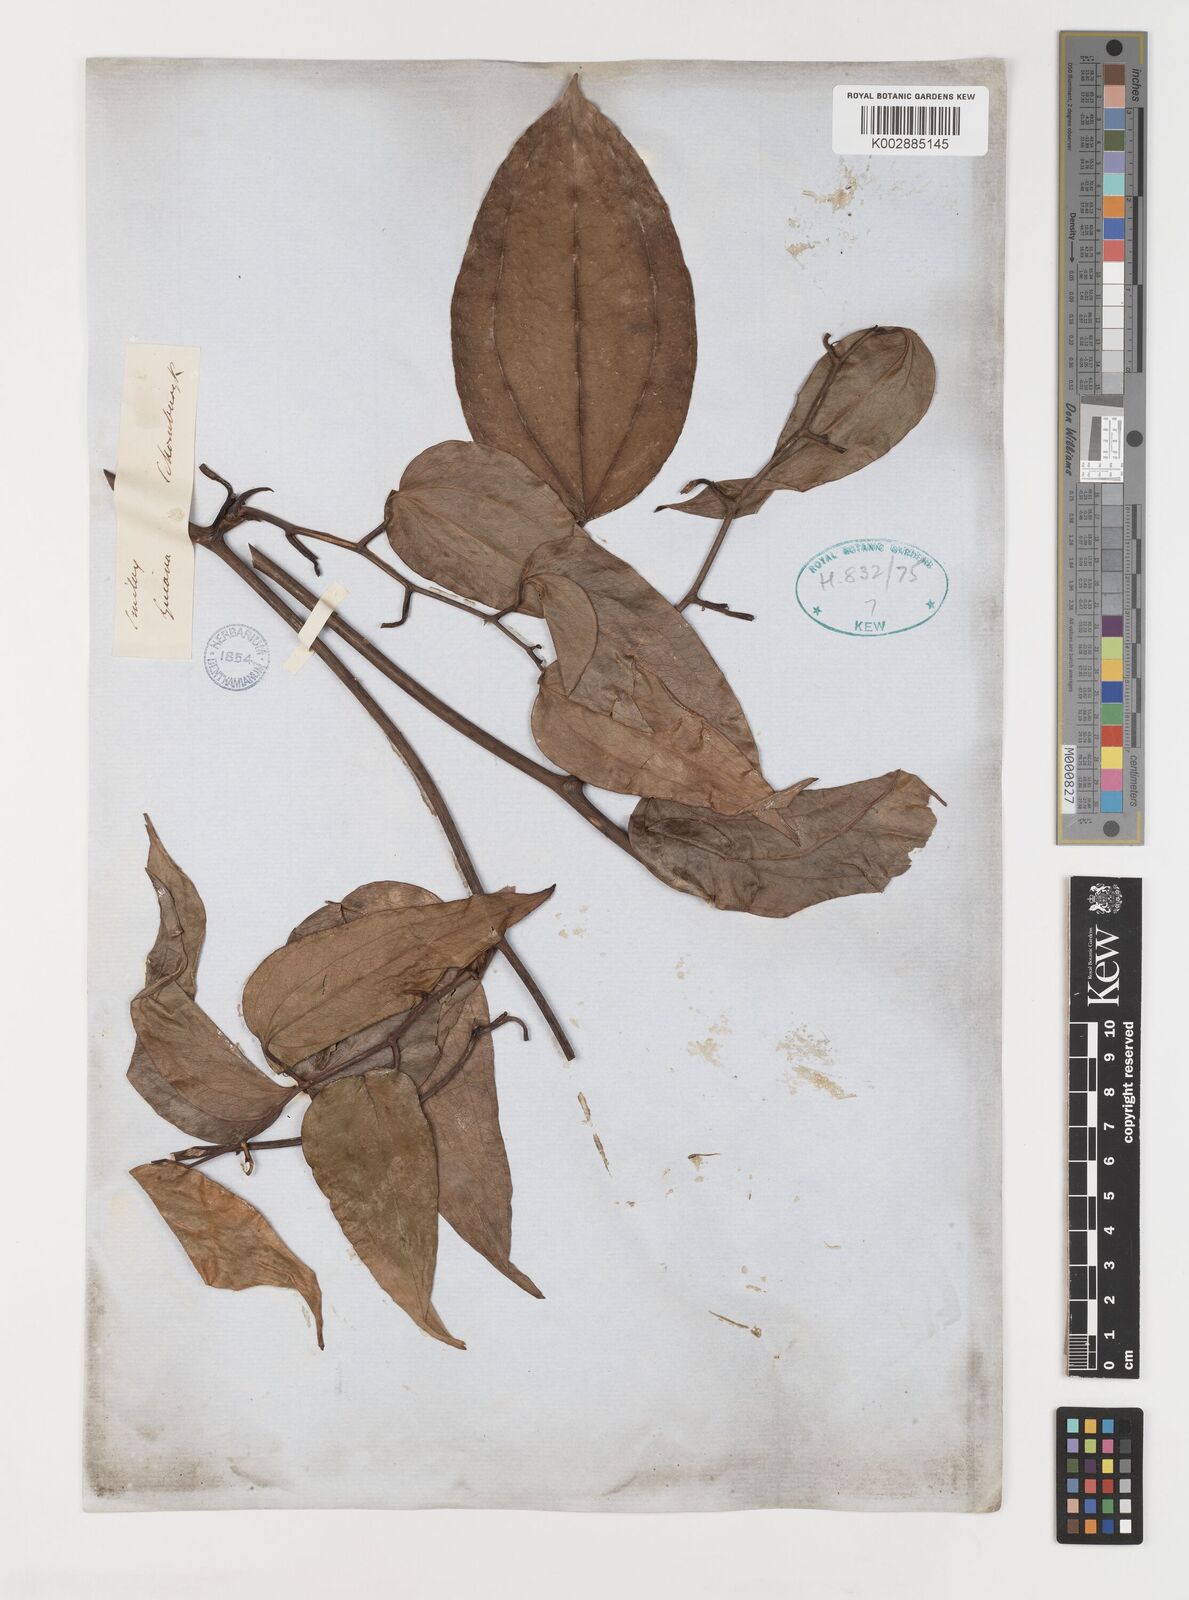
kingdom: Plantae
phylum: Tracheophyta
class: Liliopsida
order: Liliales
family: Smilacaceae
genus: Smilax
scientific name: Smilax
